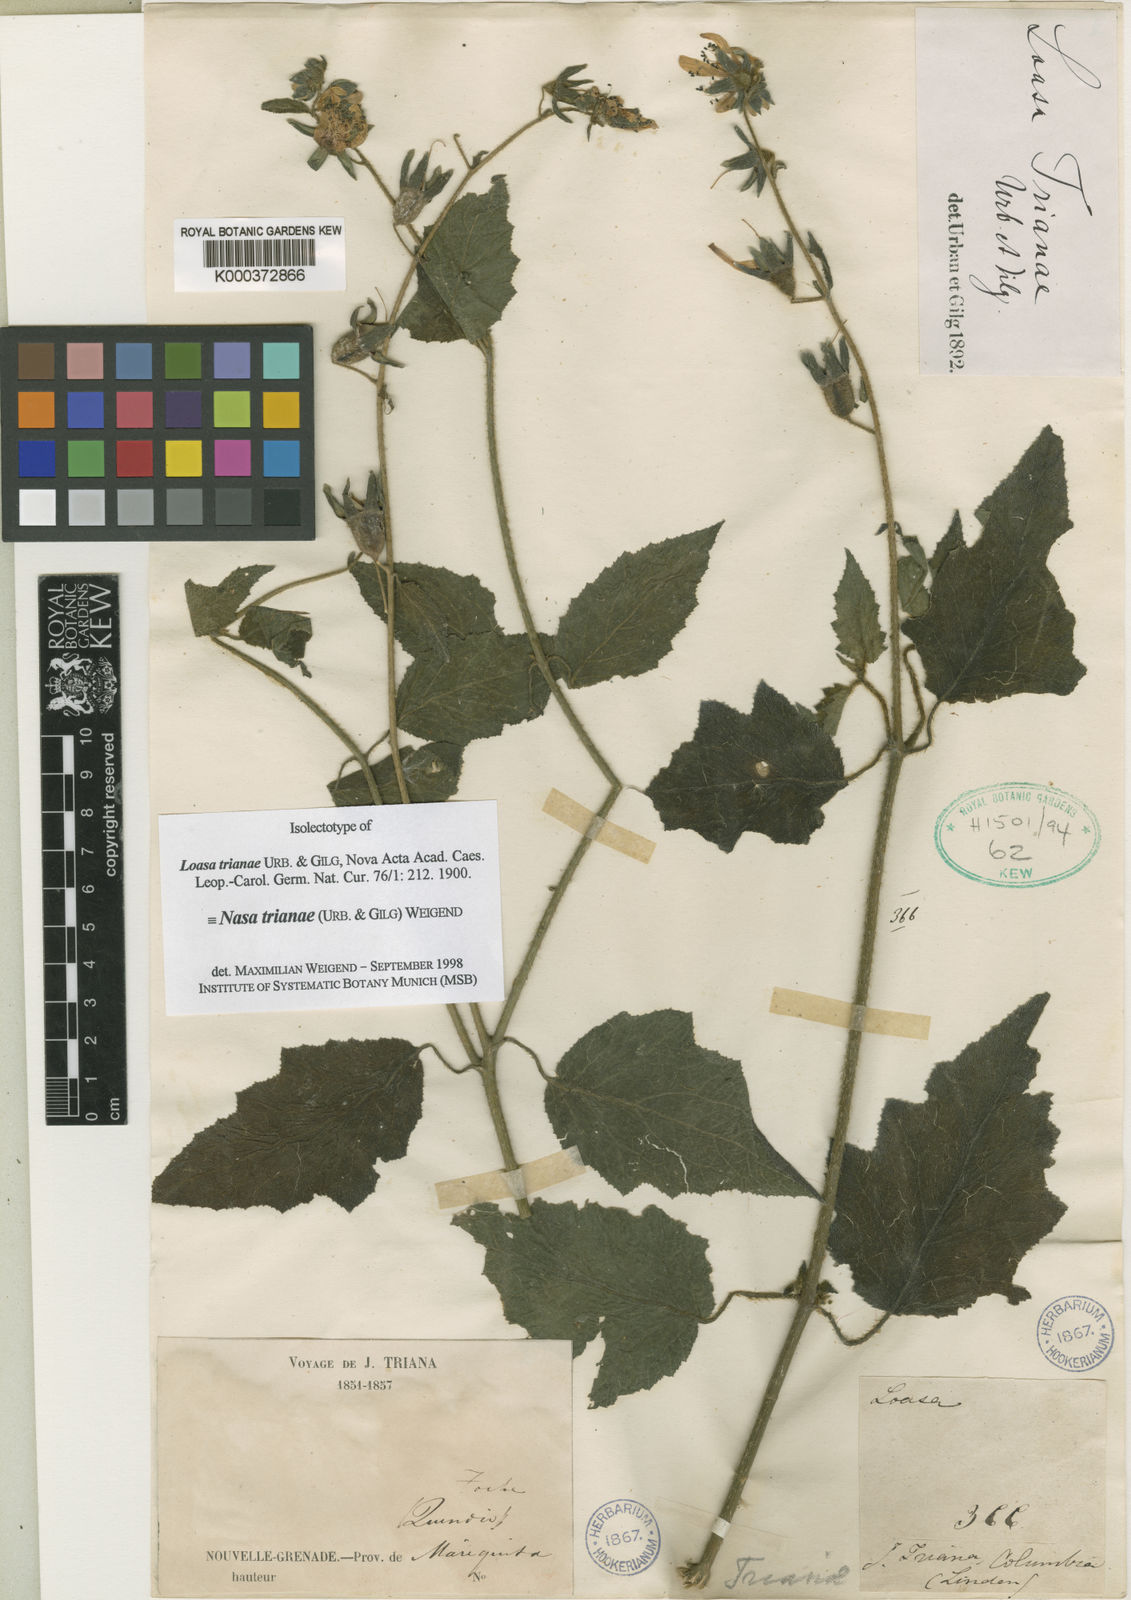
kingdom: Plantae
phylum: Tracheophyta
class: Magnoliopsida
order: Cornales
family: Loasaceae
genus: Nasa
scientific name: Nasa trianae
